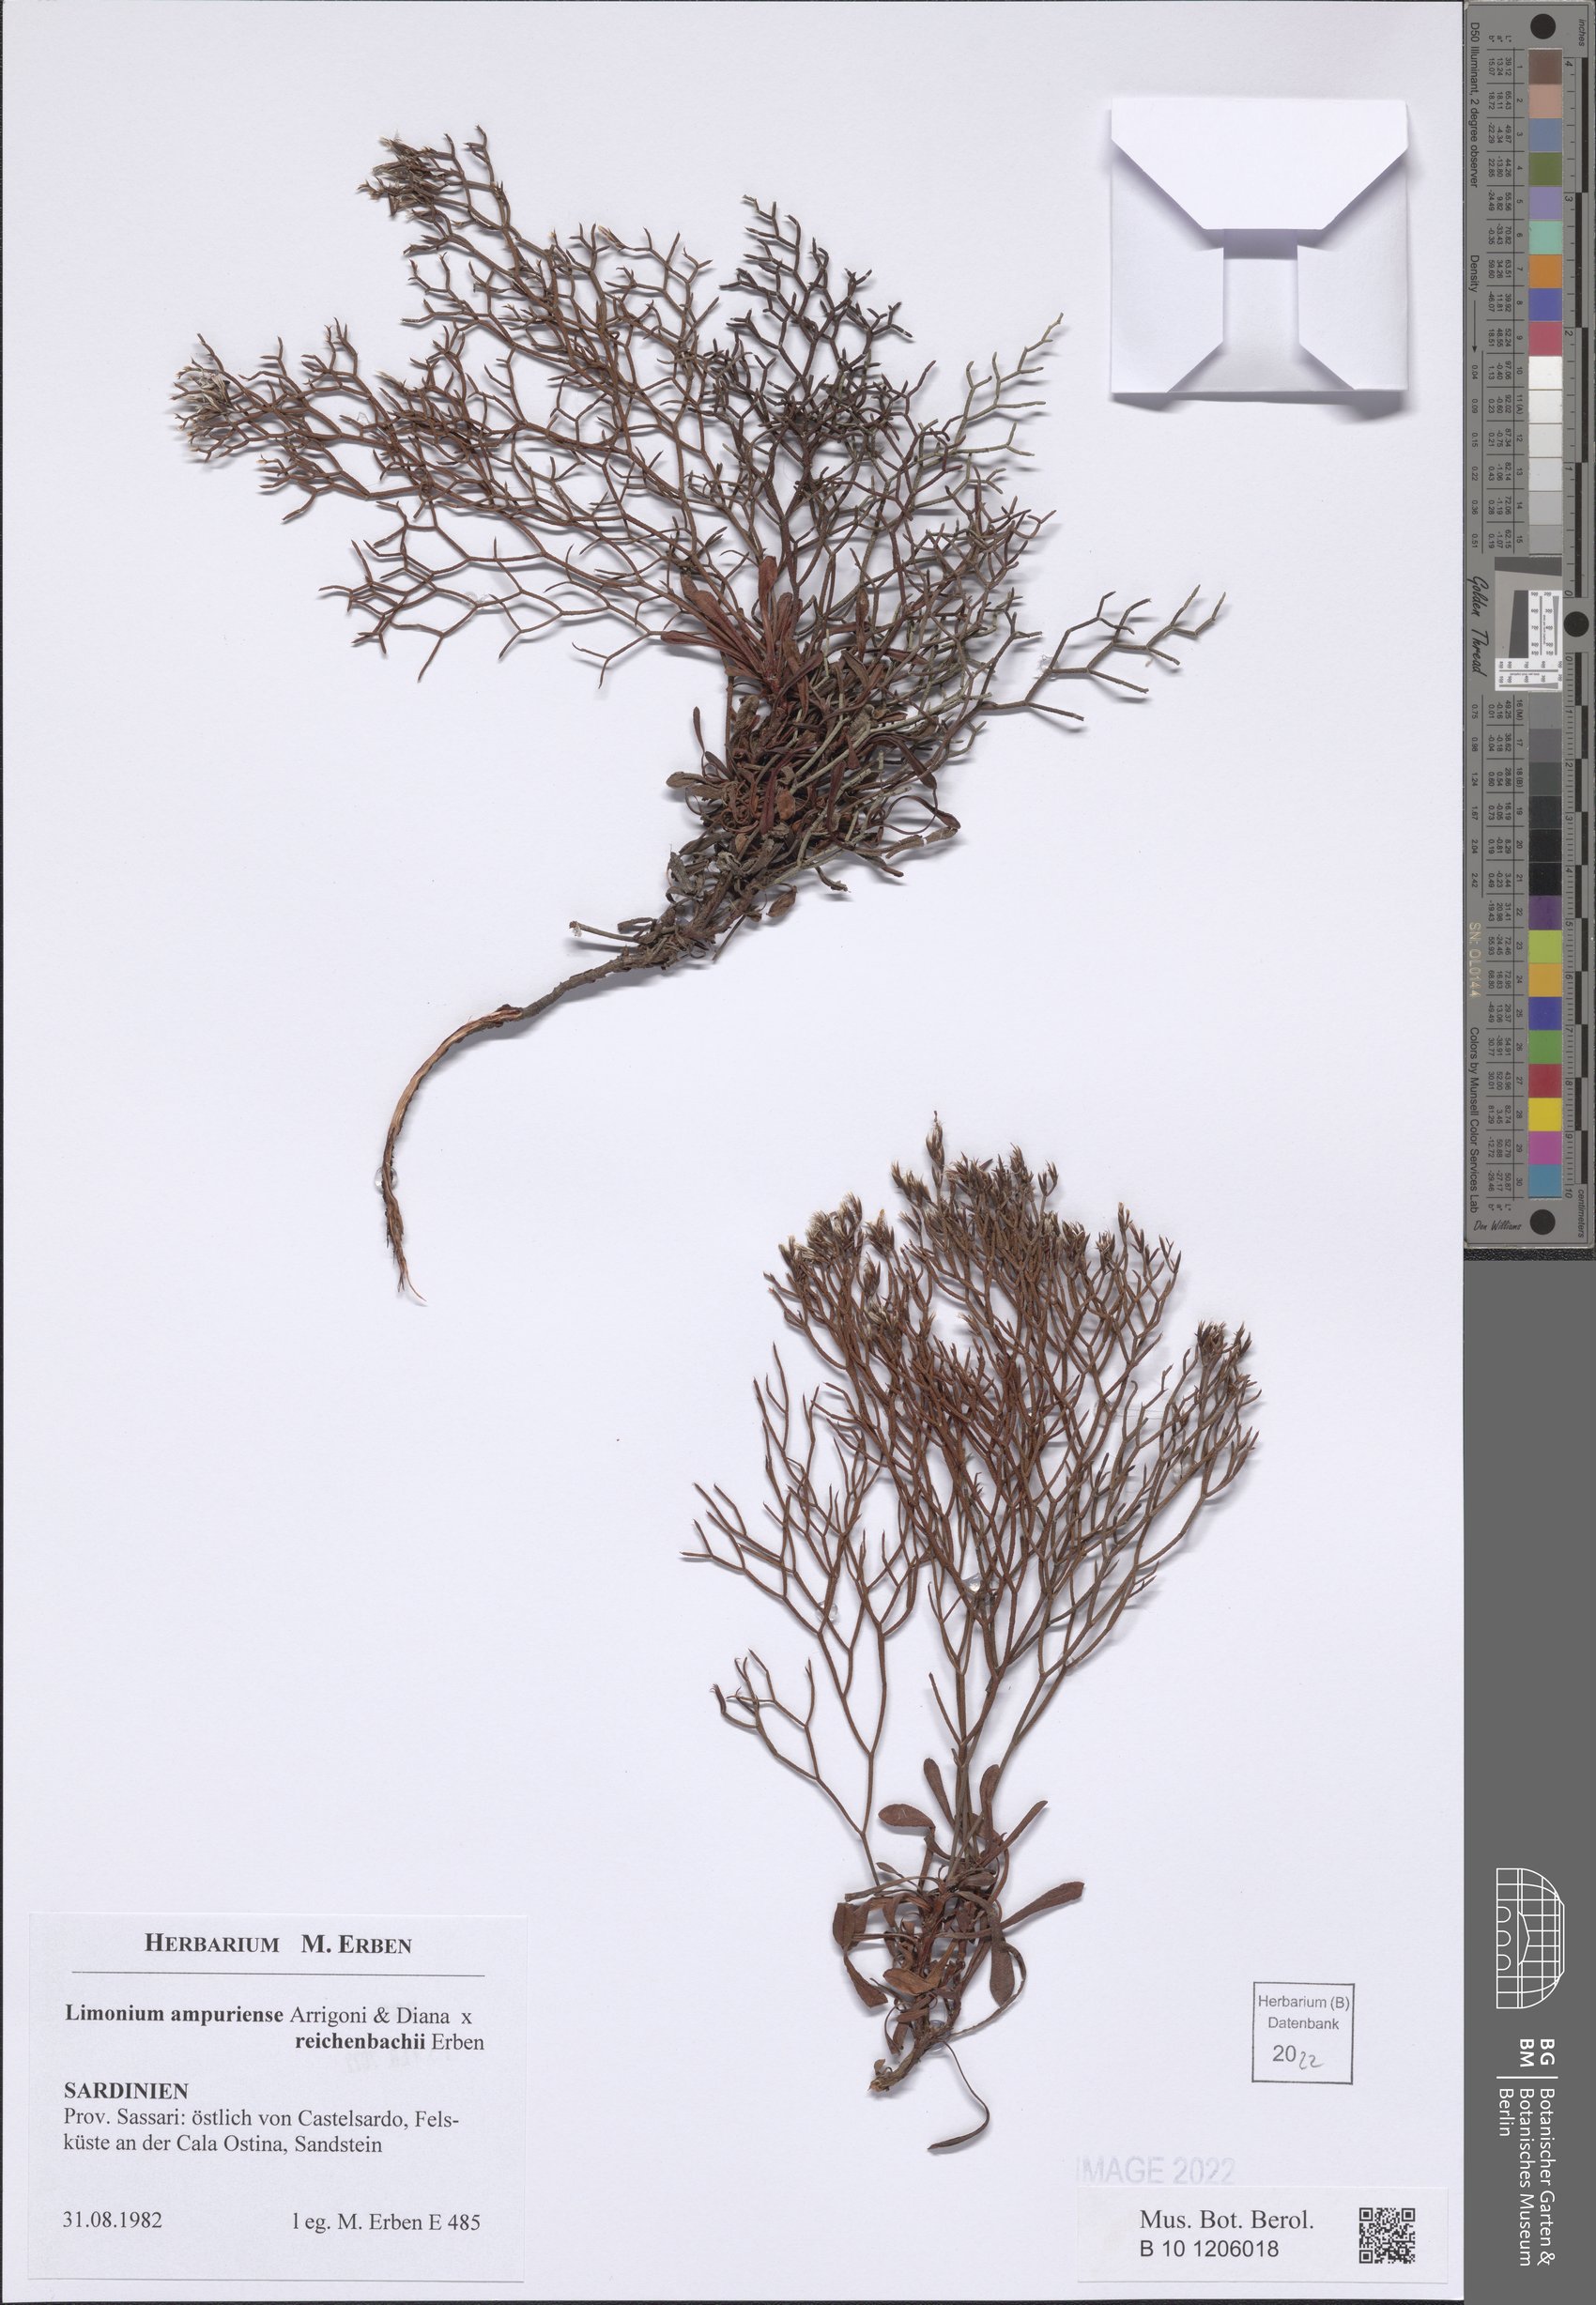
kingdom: Plantae
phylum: Tracheophyta
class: Magnoliopsida
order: Caryophyllales
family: Plumbaginaceae
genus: Limonium
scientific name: Limonium ampuriense
